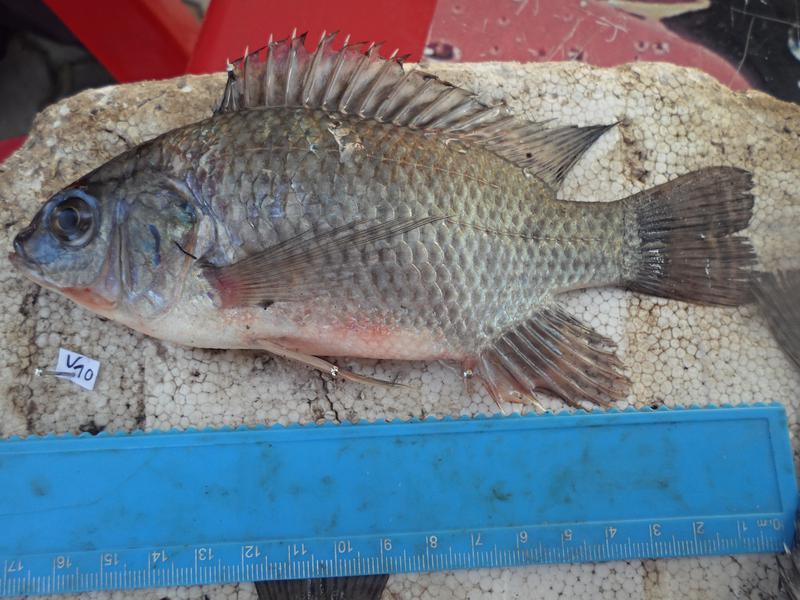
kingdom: Animalia
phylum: Chordata
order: Perciformes
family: Cichlidae
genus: Oreochromis
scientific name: Oreochromis niloticus
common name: Nile tilapia
